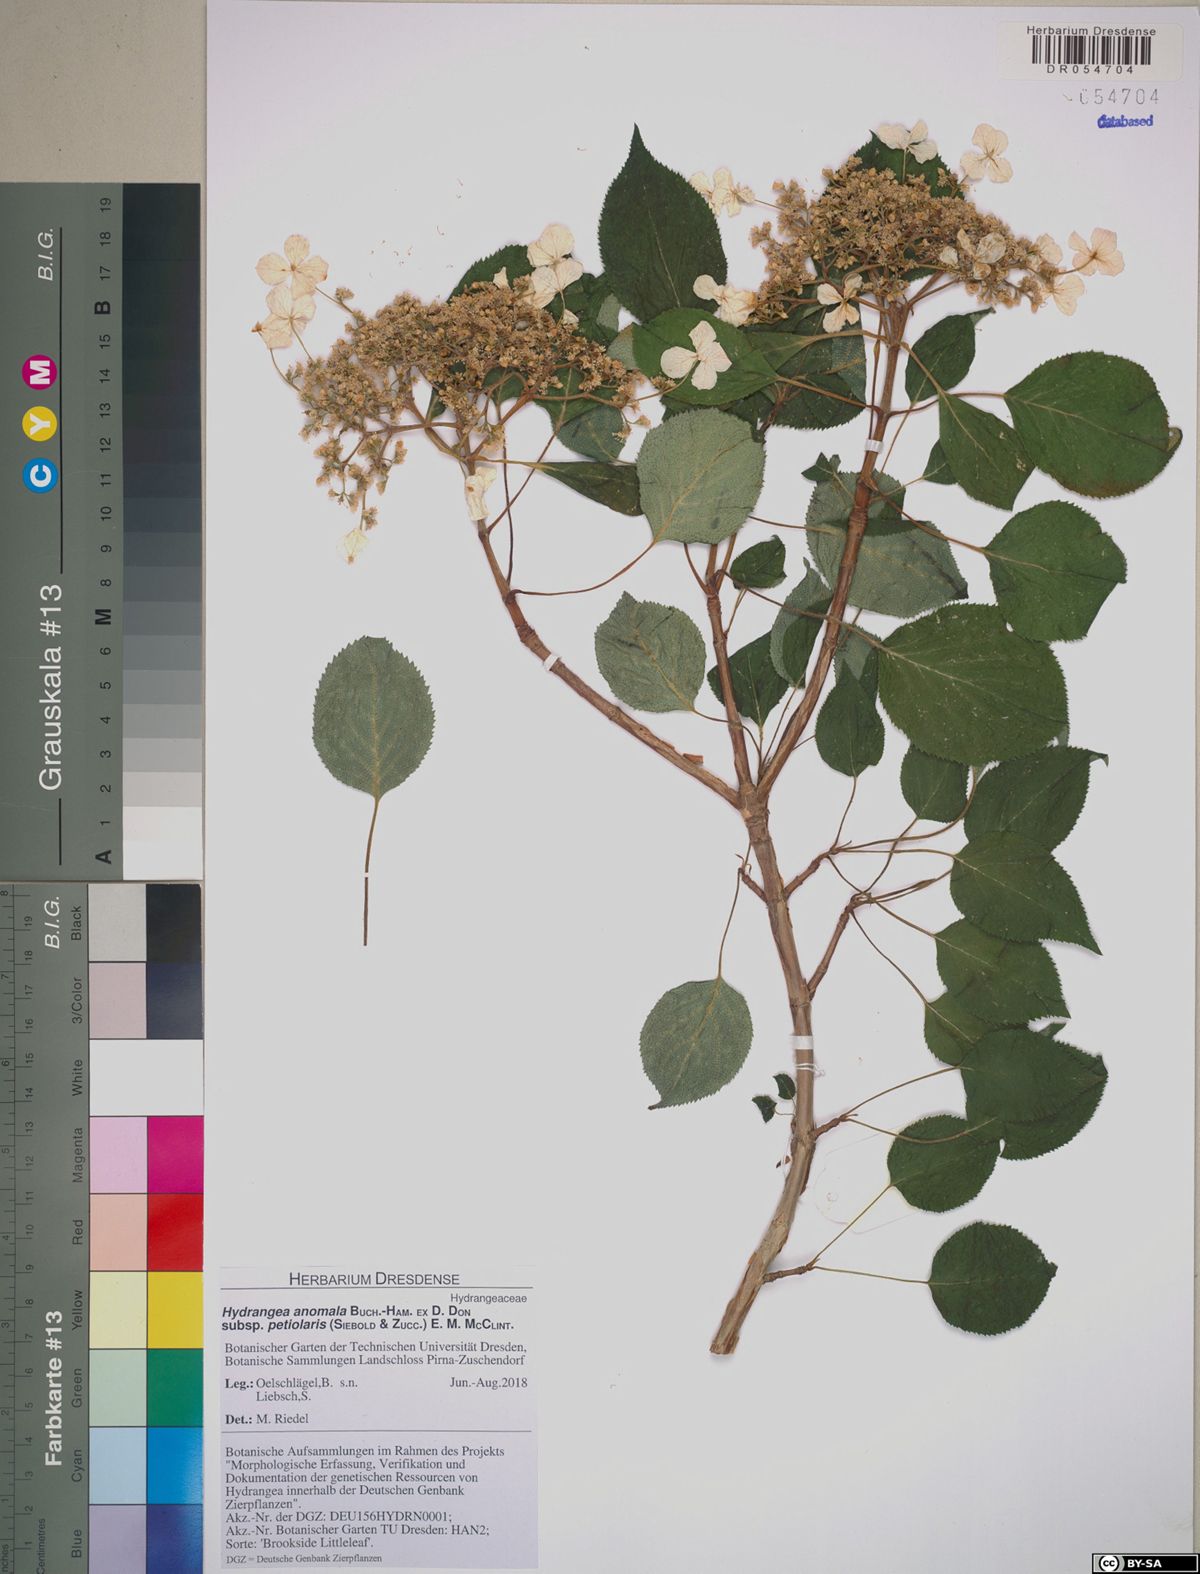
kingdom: Plantae
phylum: Tracheophyta
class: Magnoliopsida
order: Cornales
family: Hydrangeaceae
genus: Hydrangea
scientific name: Hydrangea petiolaris
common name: Japanese climbing hydrangea
